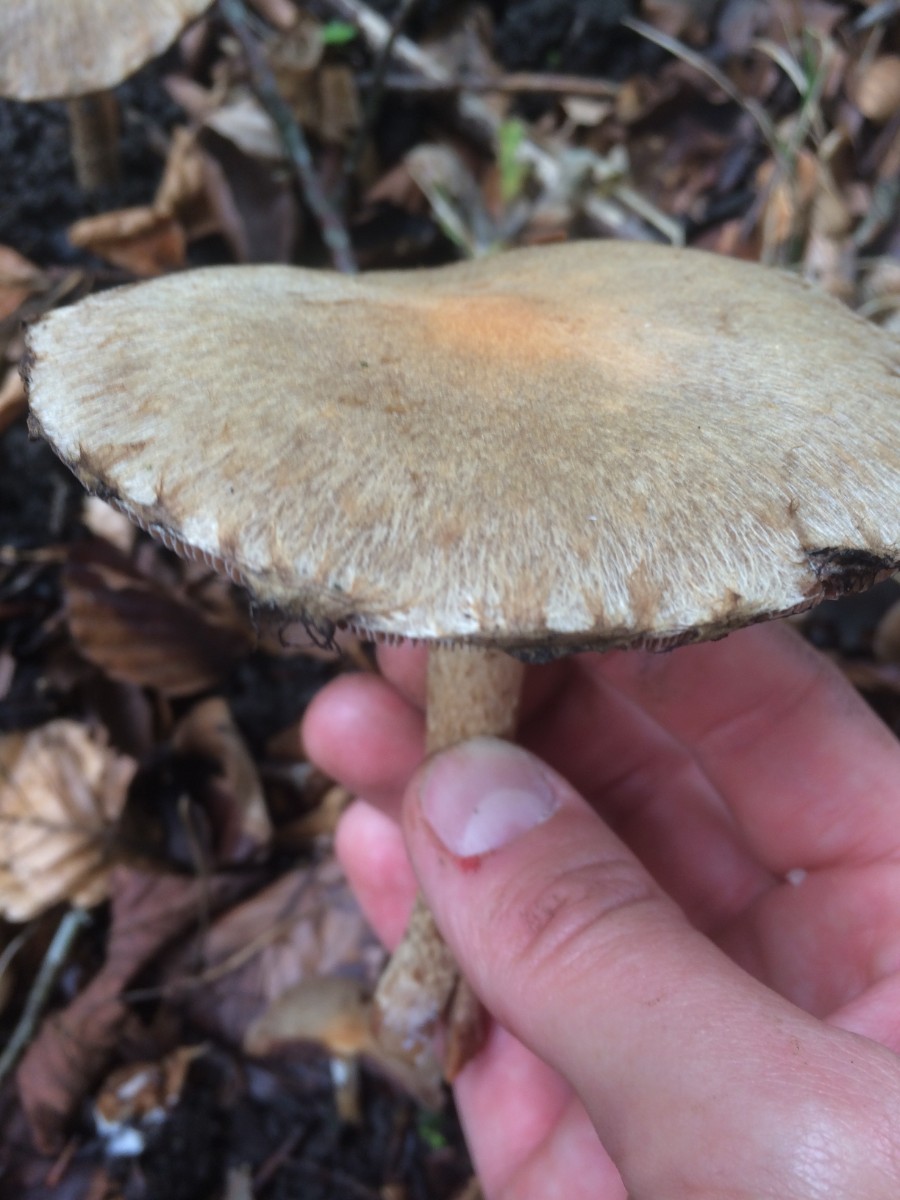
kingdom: Fungi
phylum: Basidiomycota
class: Agaricomycetes
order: Agaricales
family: Psathyrellaceae
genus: Lacrymaria
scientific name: Lacrymaria lacrymabunda
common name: grædende mørkhat
